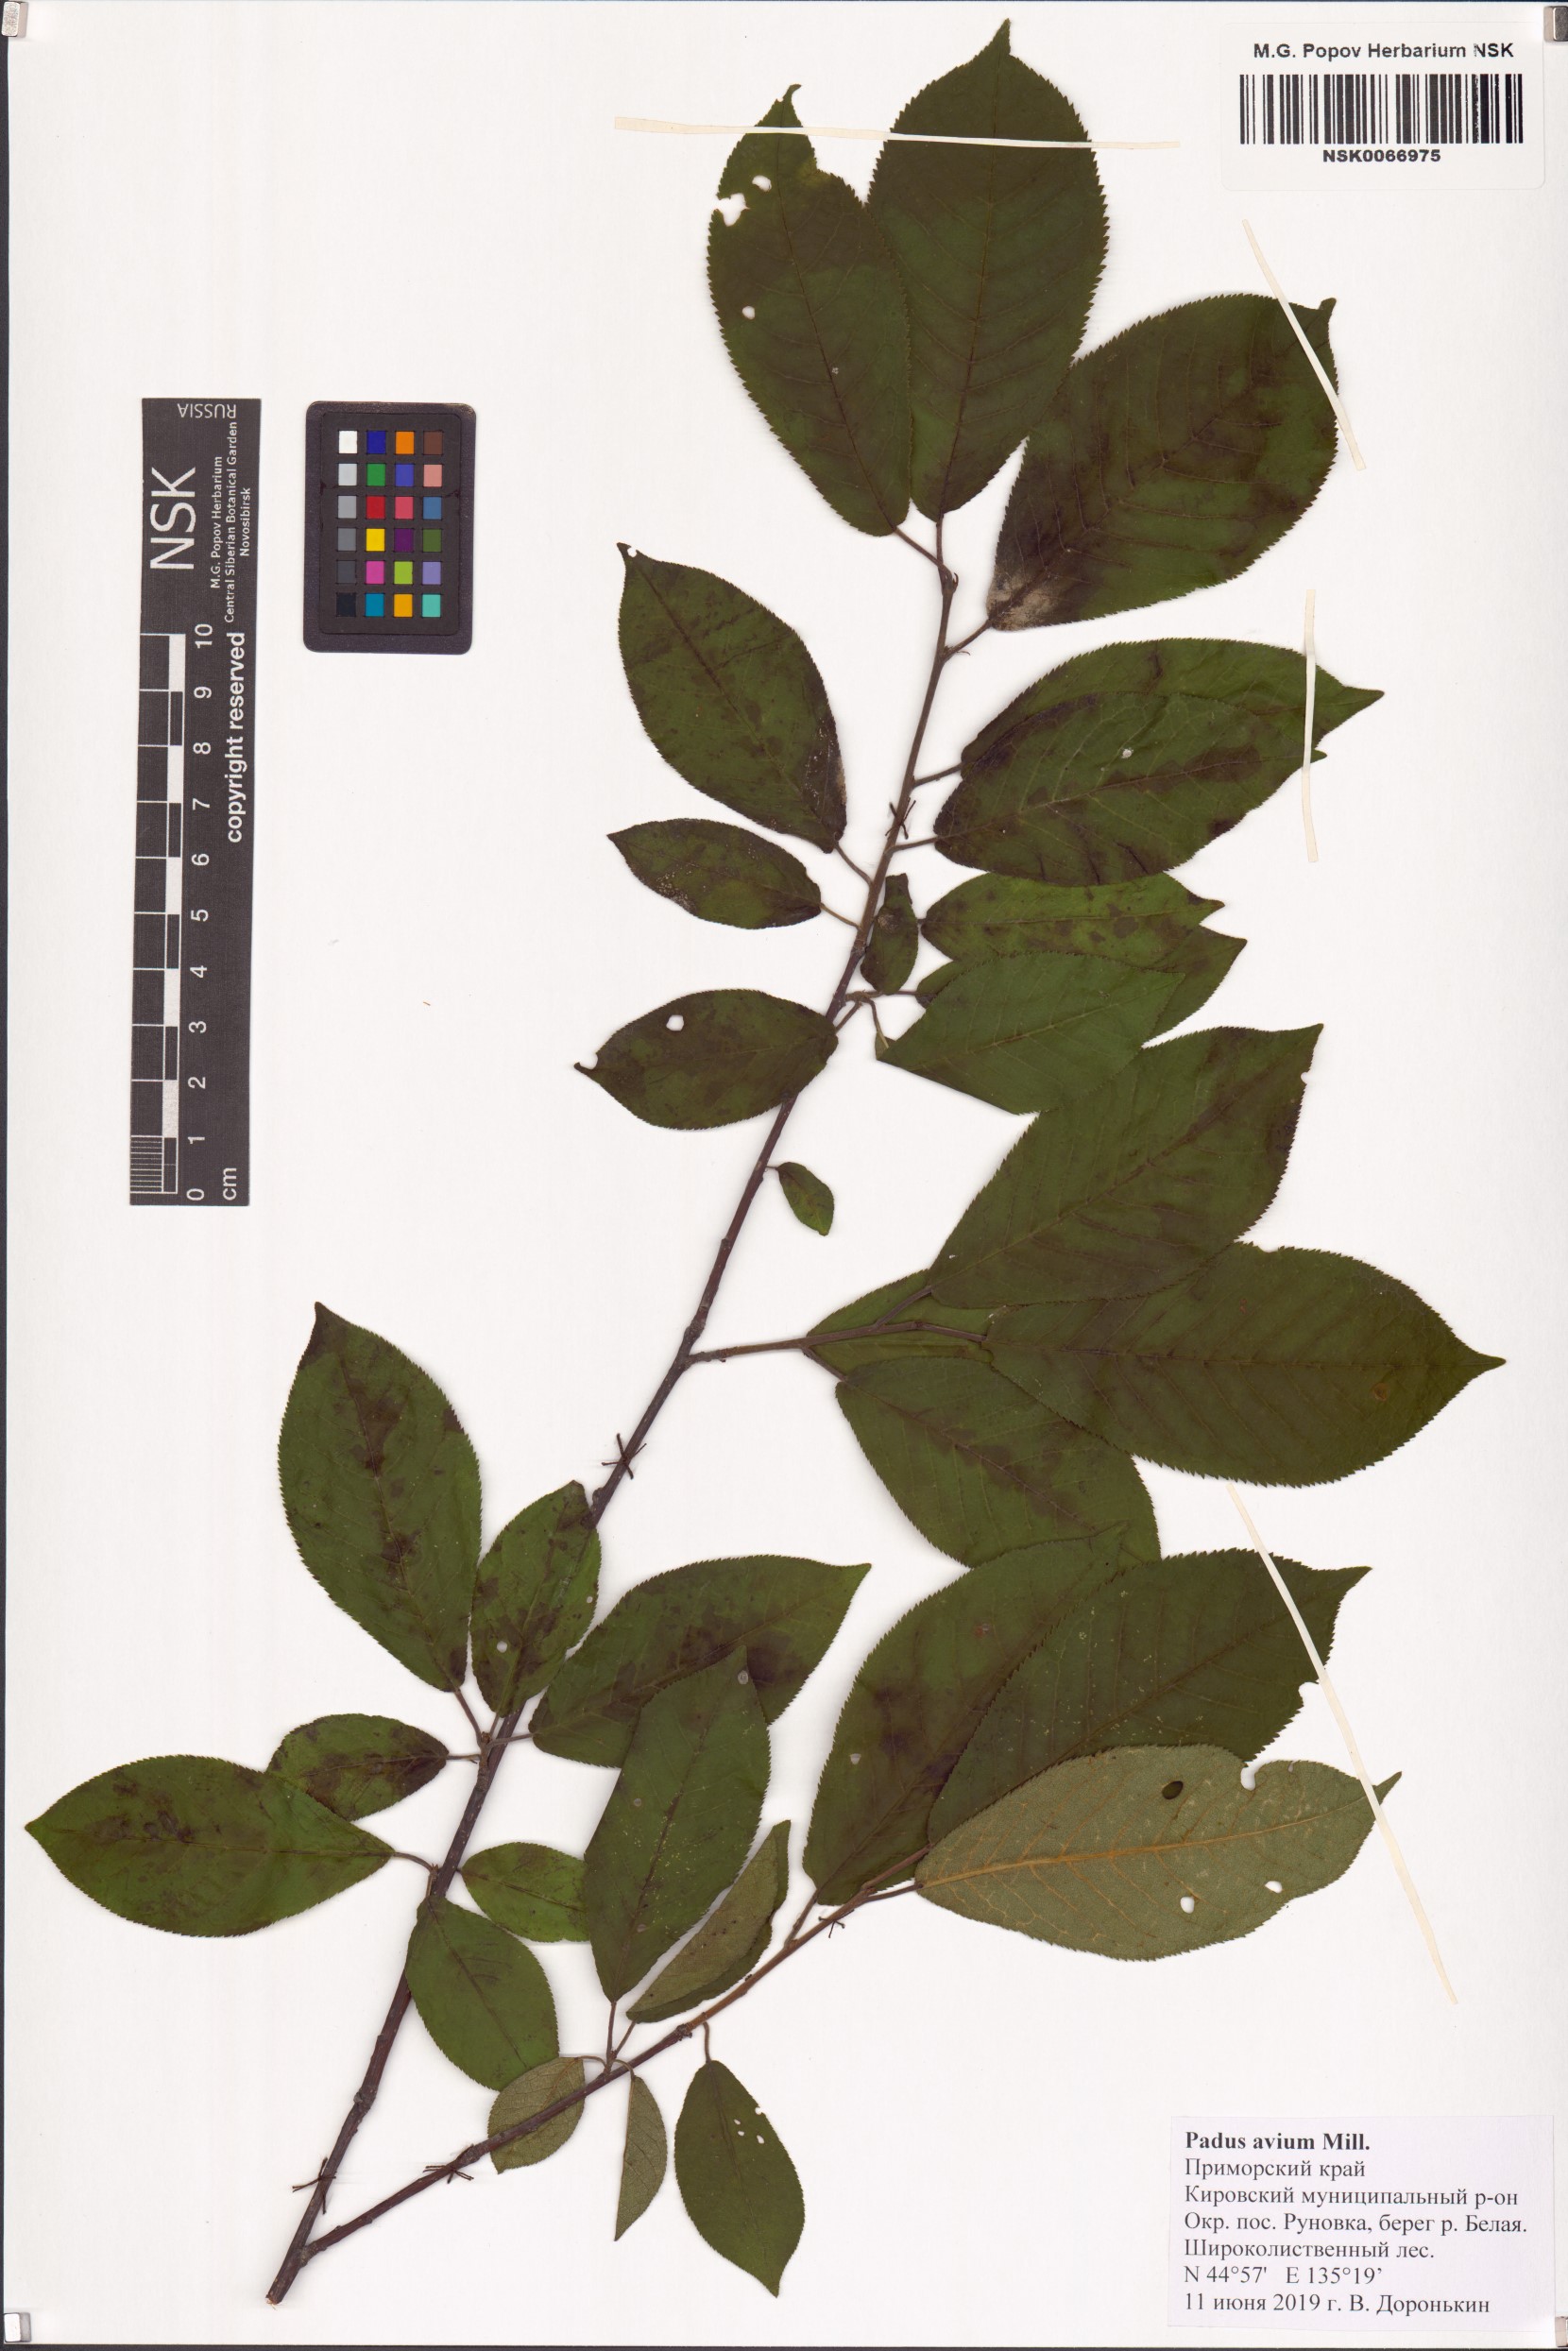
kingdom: Plantae
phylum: Tracheophyta
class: Magnoliopsida
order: Rosales
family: Rosaceae
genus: Prunus
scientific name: Prunus padus
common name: Bird cherry
